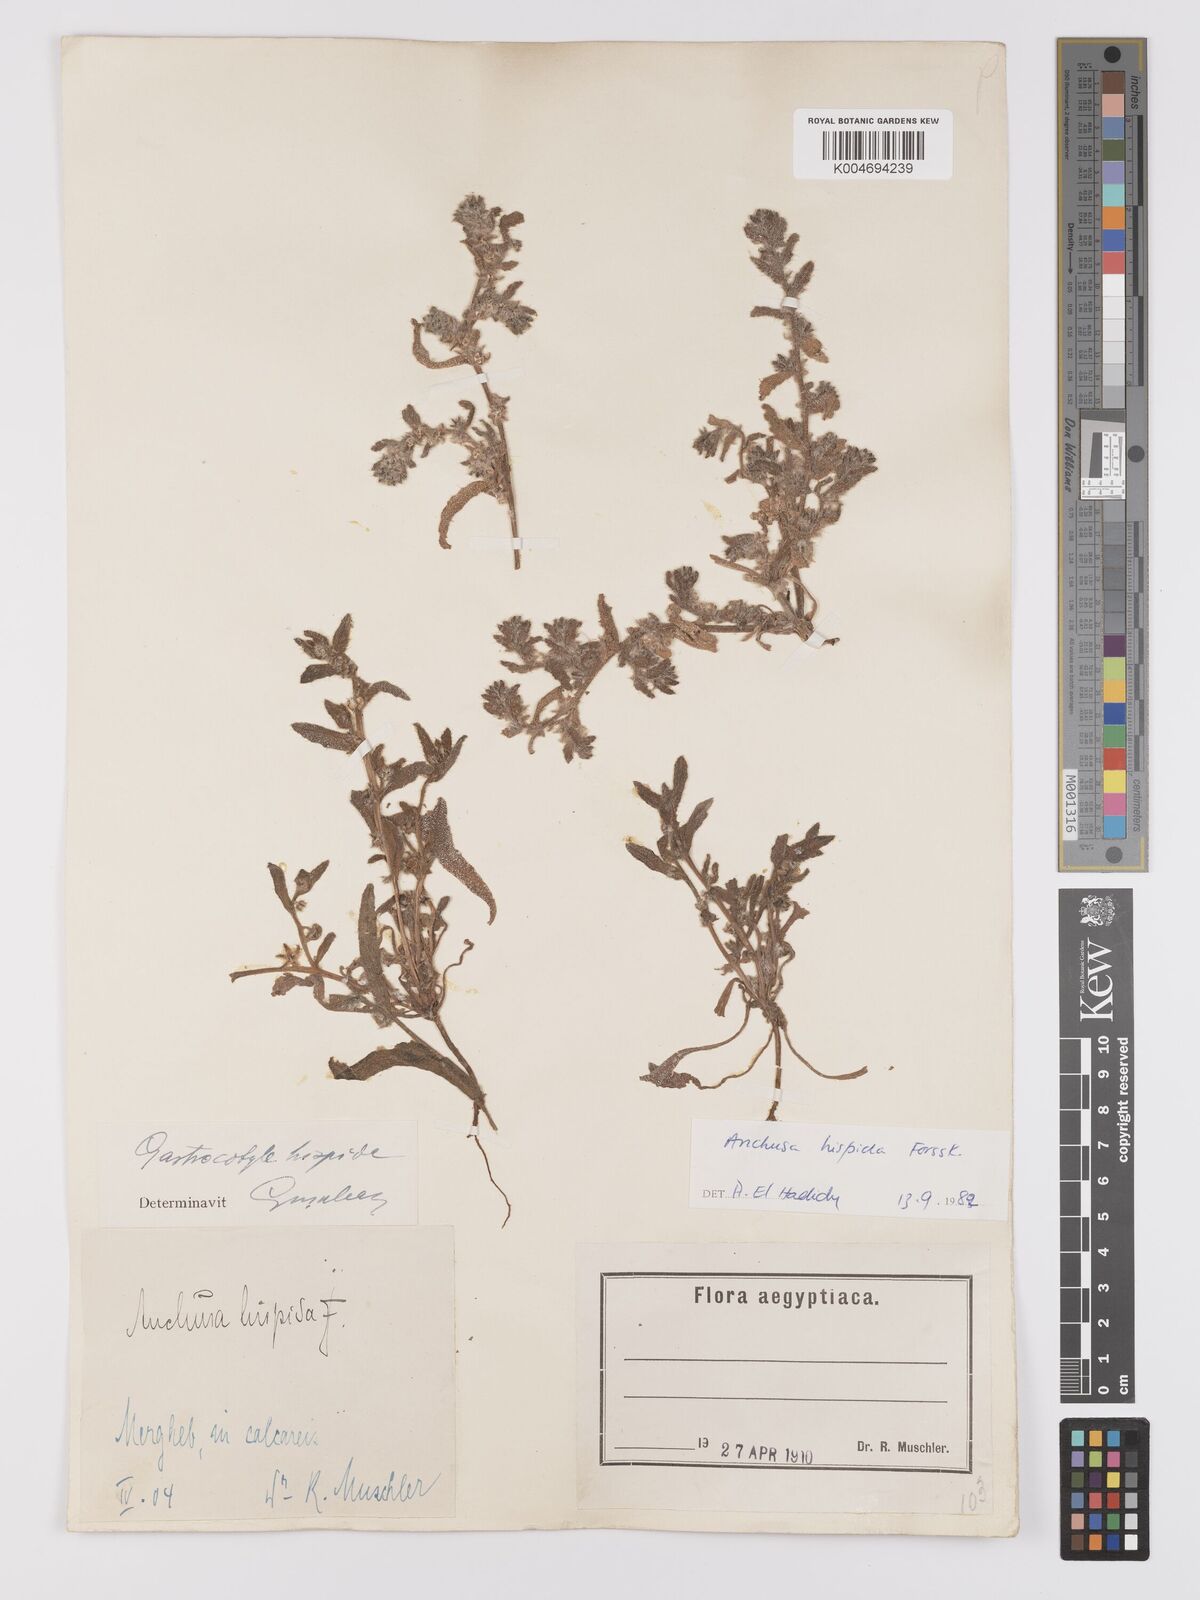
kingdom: Plantae
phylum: Tracheophyta
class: Magnoliopsida
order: Boraginales
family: Boraginaceae
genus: Gastrocotyle
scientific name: Gastrocotyle hispida
